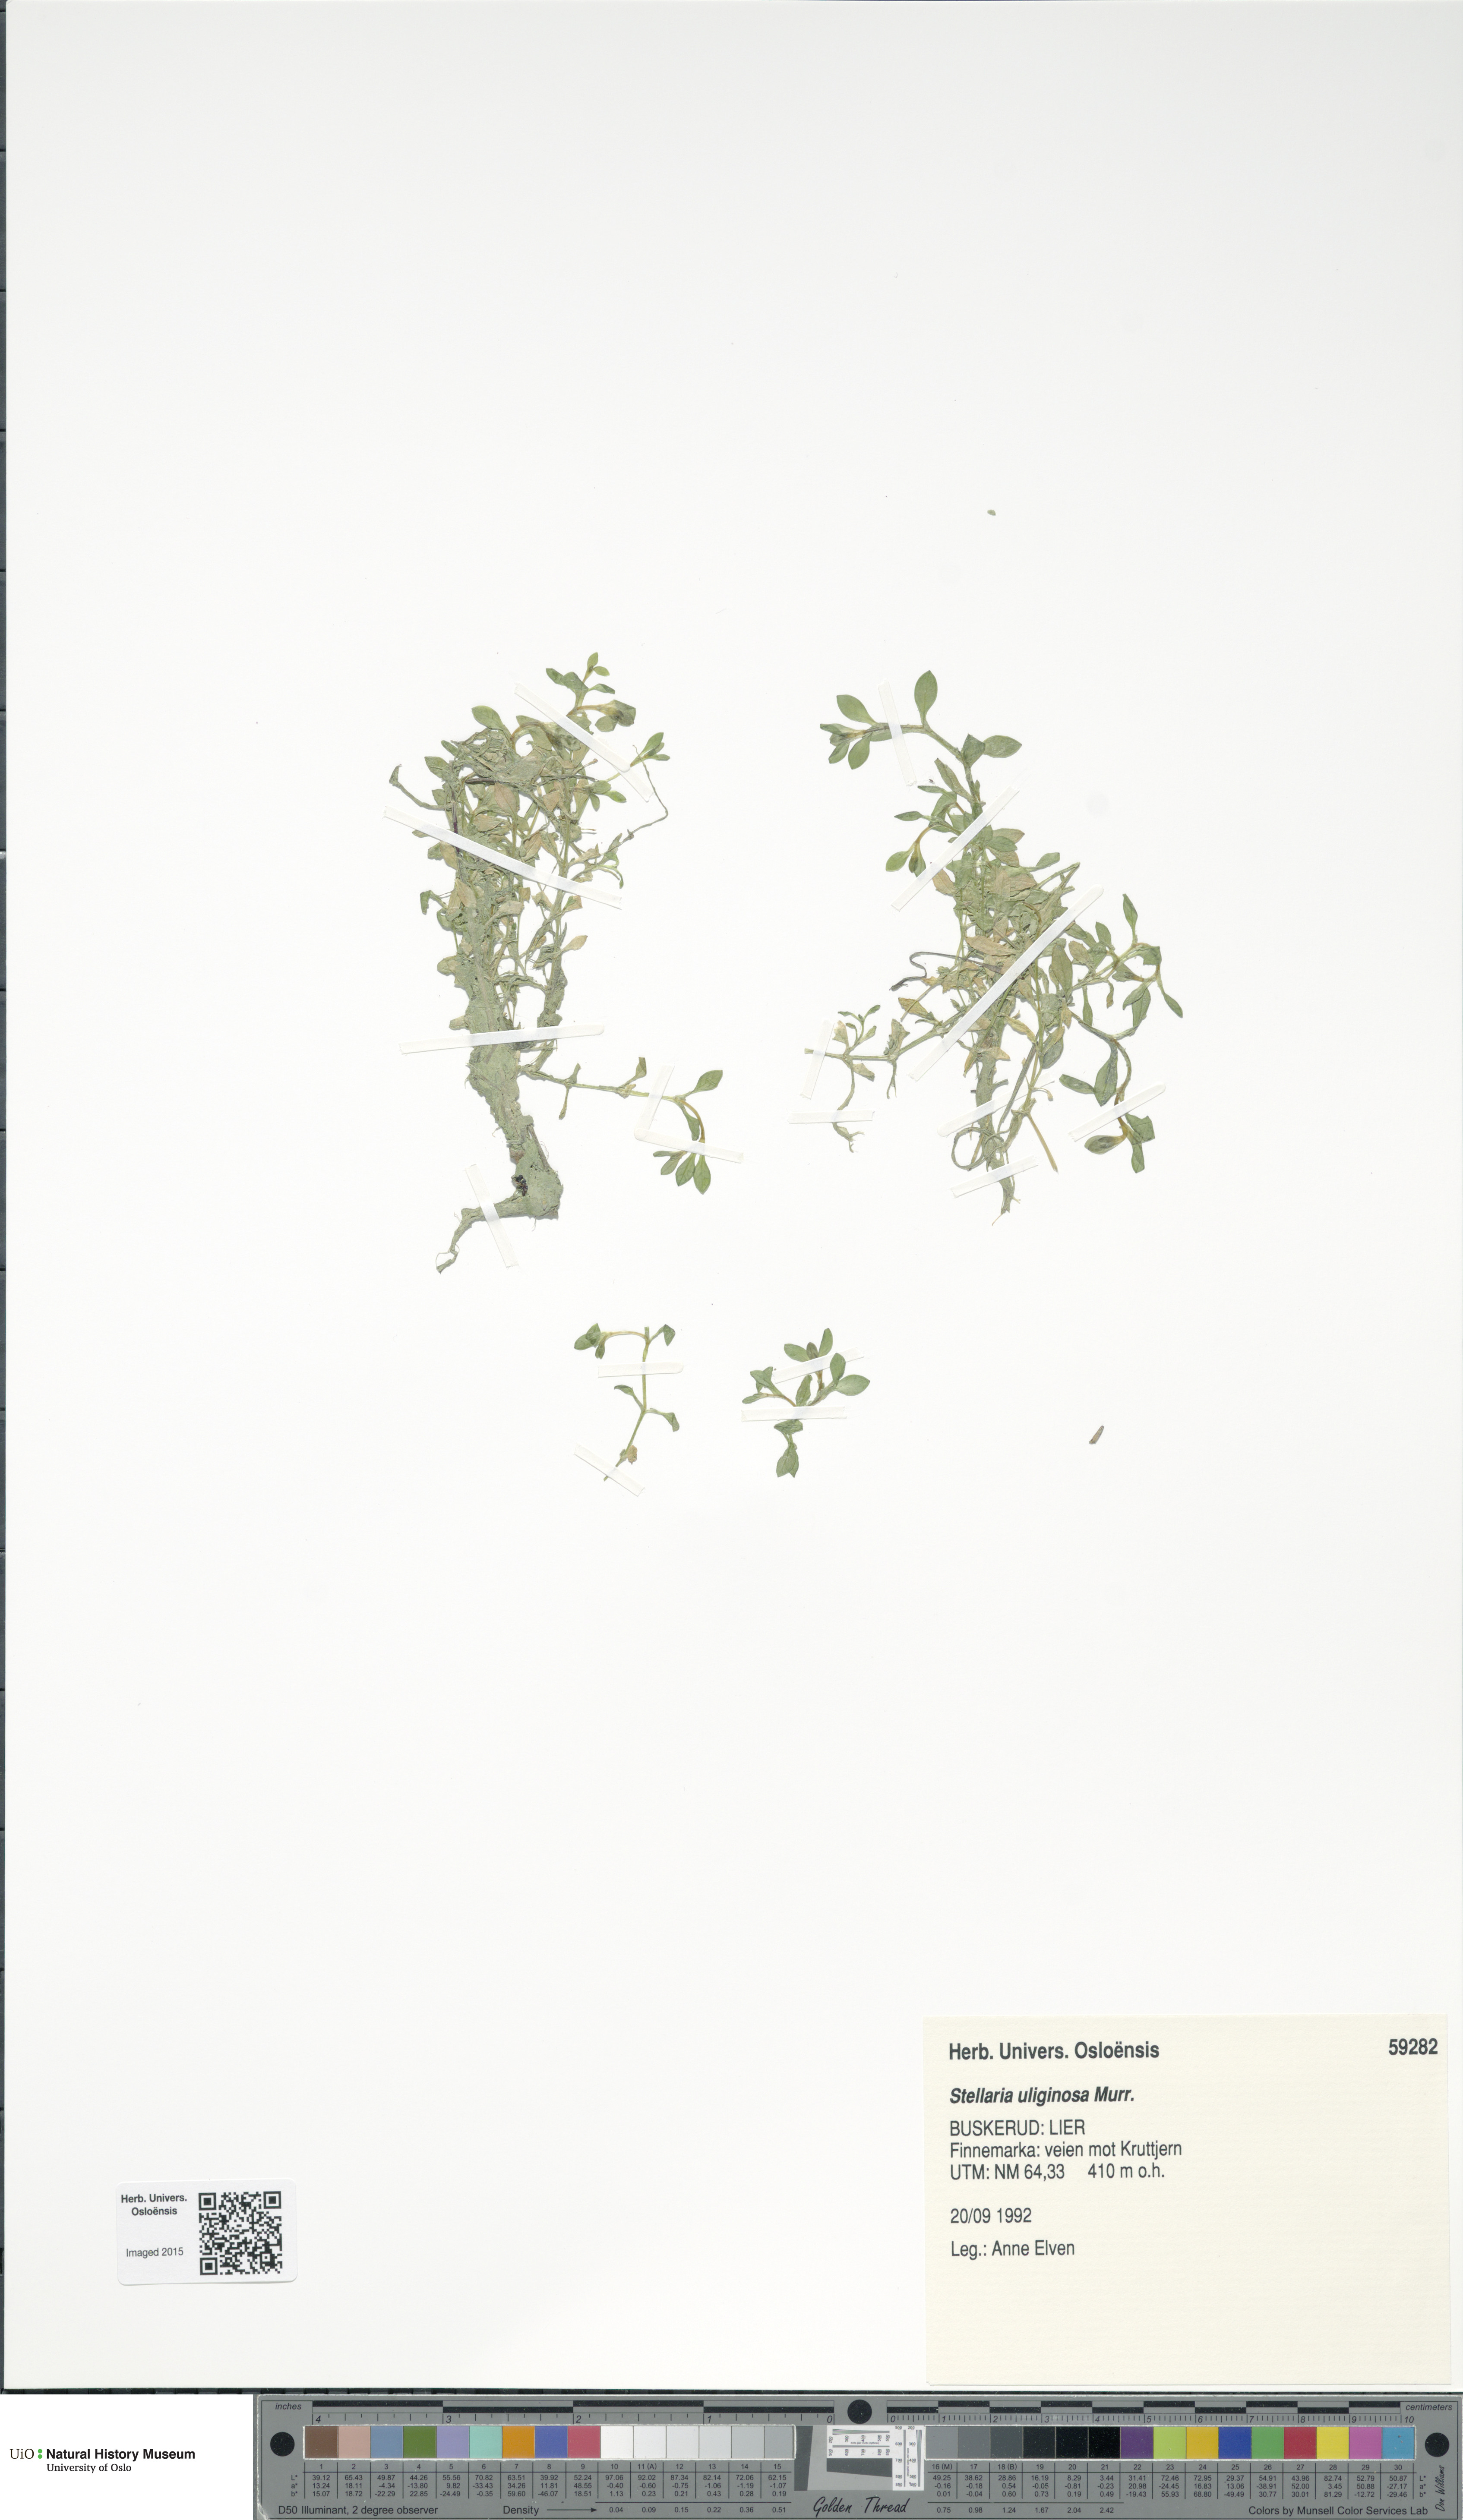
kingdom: Plantae
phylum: Tracheophyta
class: Magnoliopsida
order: Caryophyllales
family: Caryophyllaceae
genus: Stellaria
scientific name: Stellaria alsine
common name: Bog stitchwort
